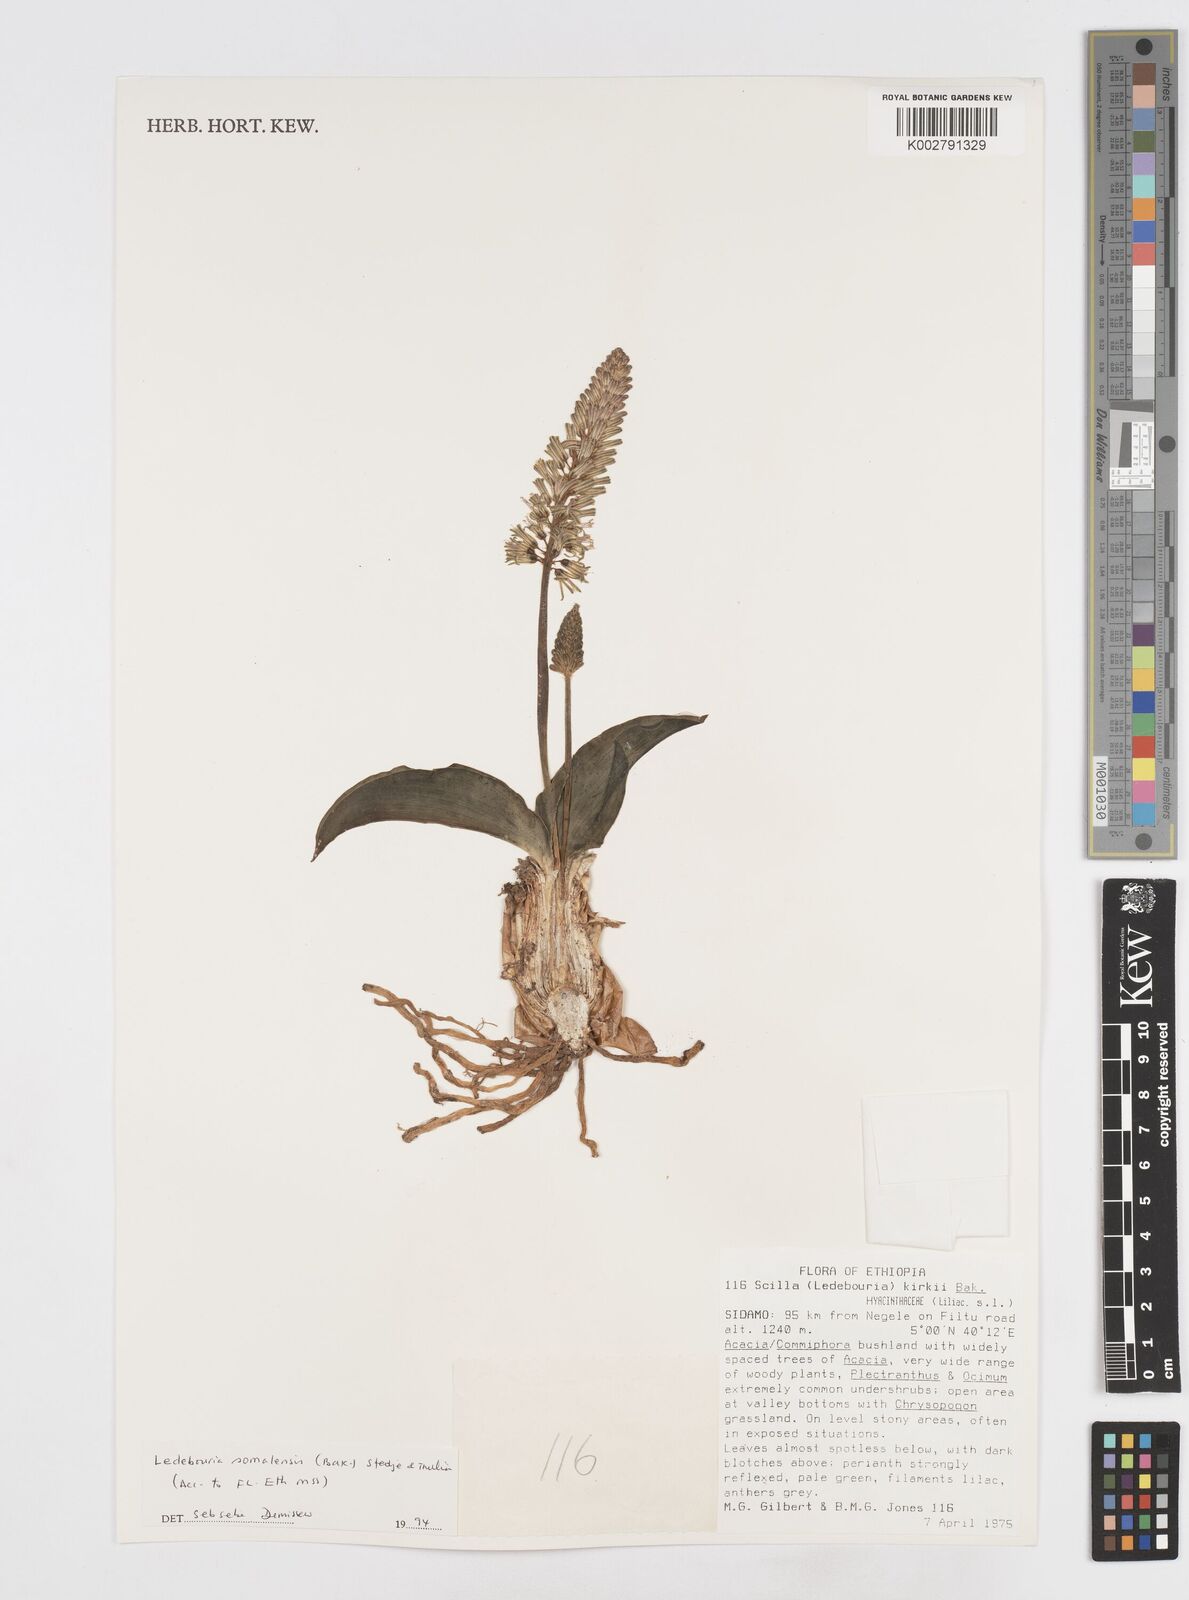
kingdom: Plantae
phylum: Tracheophyta
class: Liliopsida
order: Asparagales
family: Asparagaceae
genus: Scilla
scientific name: Scilla
